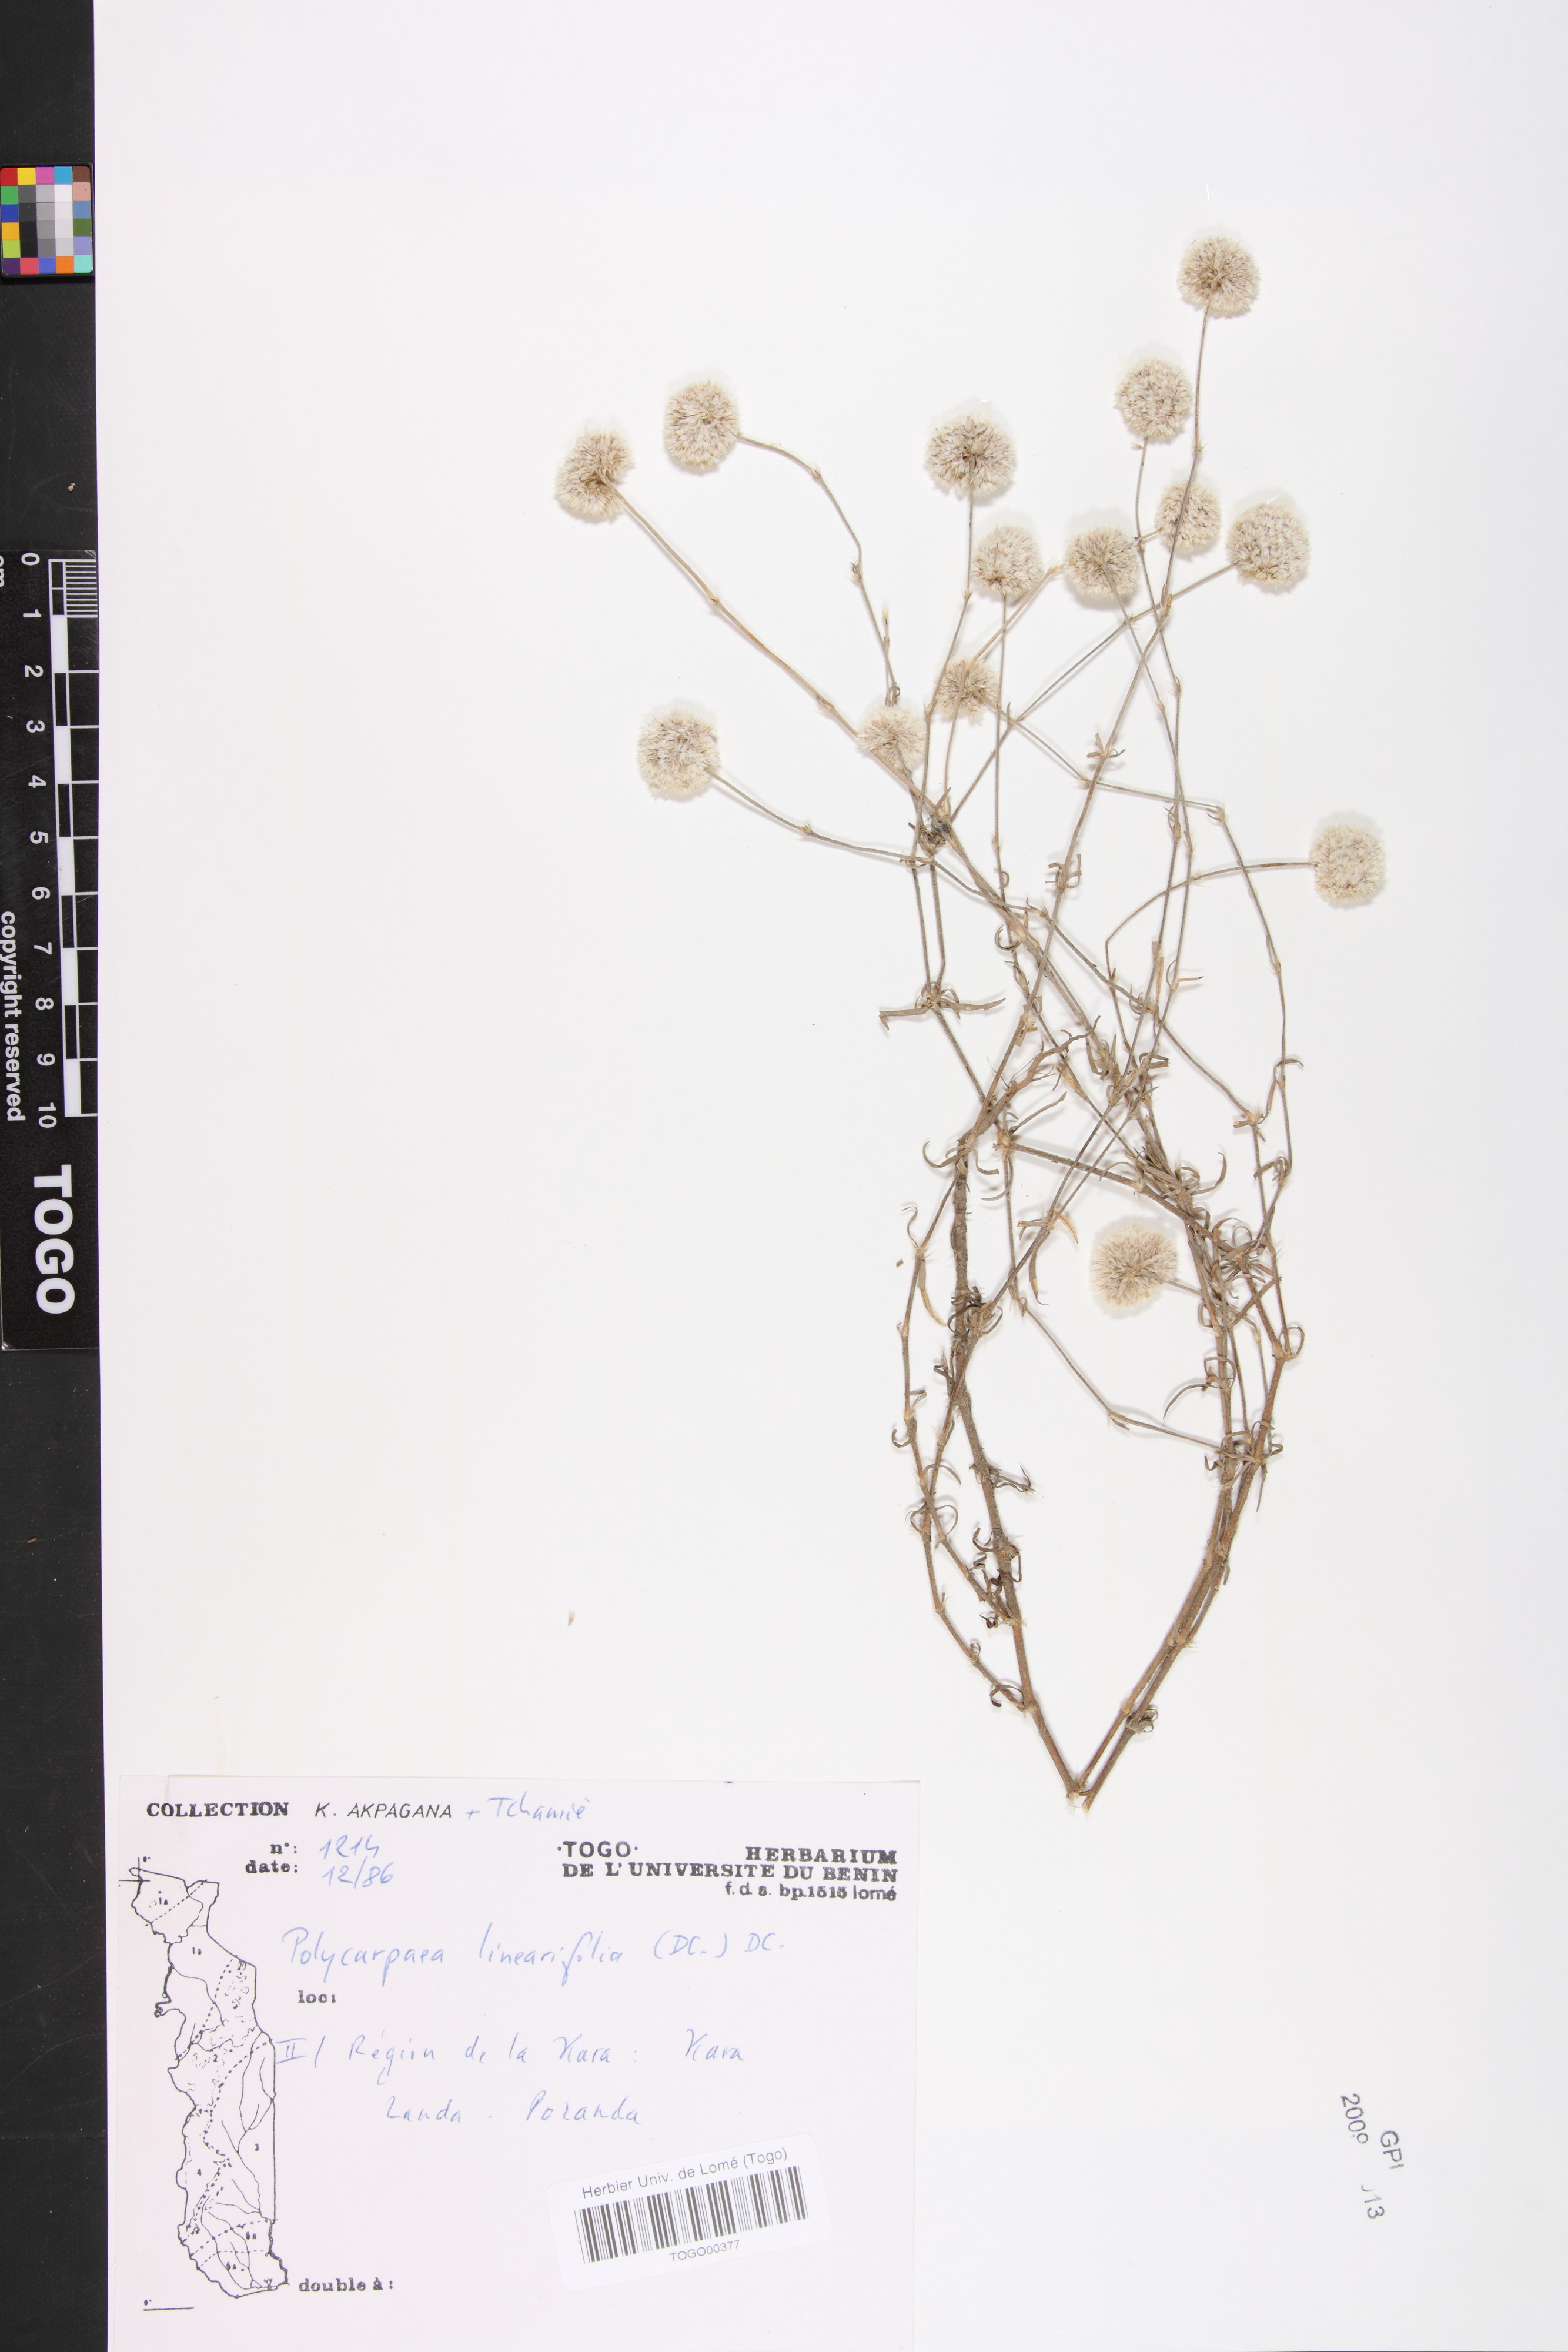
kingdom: Plantae
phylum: Tracheophyta
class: Magnoliopsida
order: Caryophyllales
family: Caryophyllaceae
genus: Polycarpaea
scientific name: Polycarpaea linearifolia
